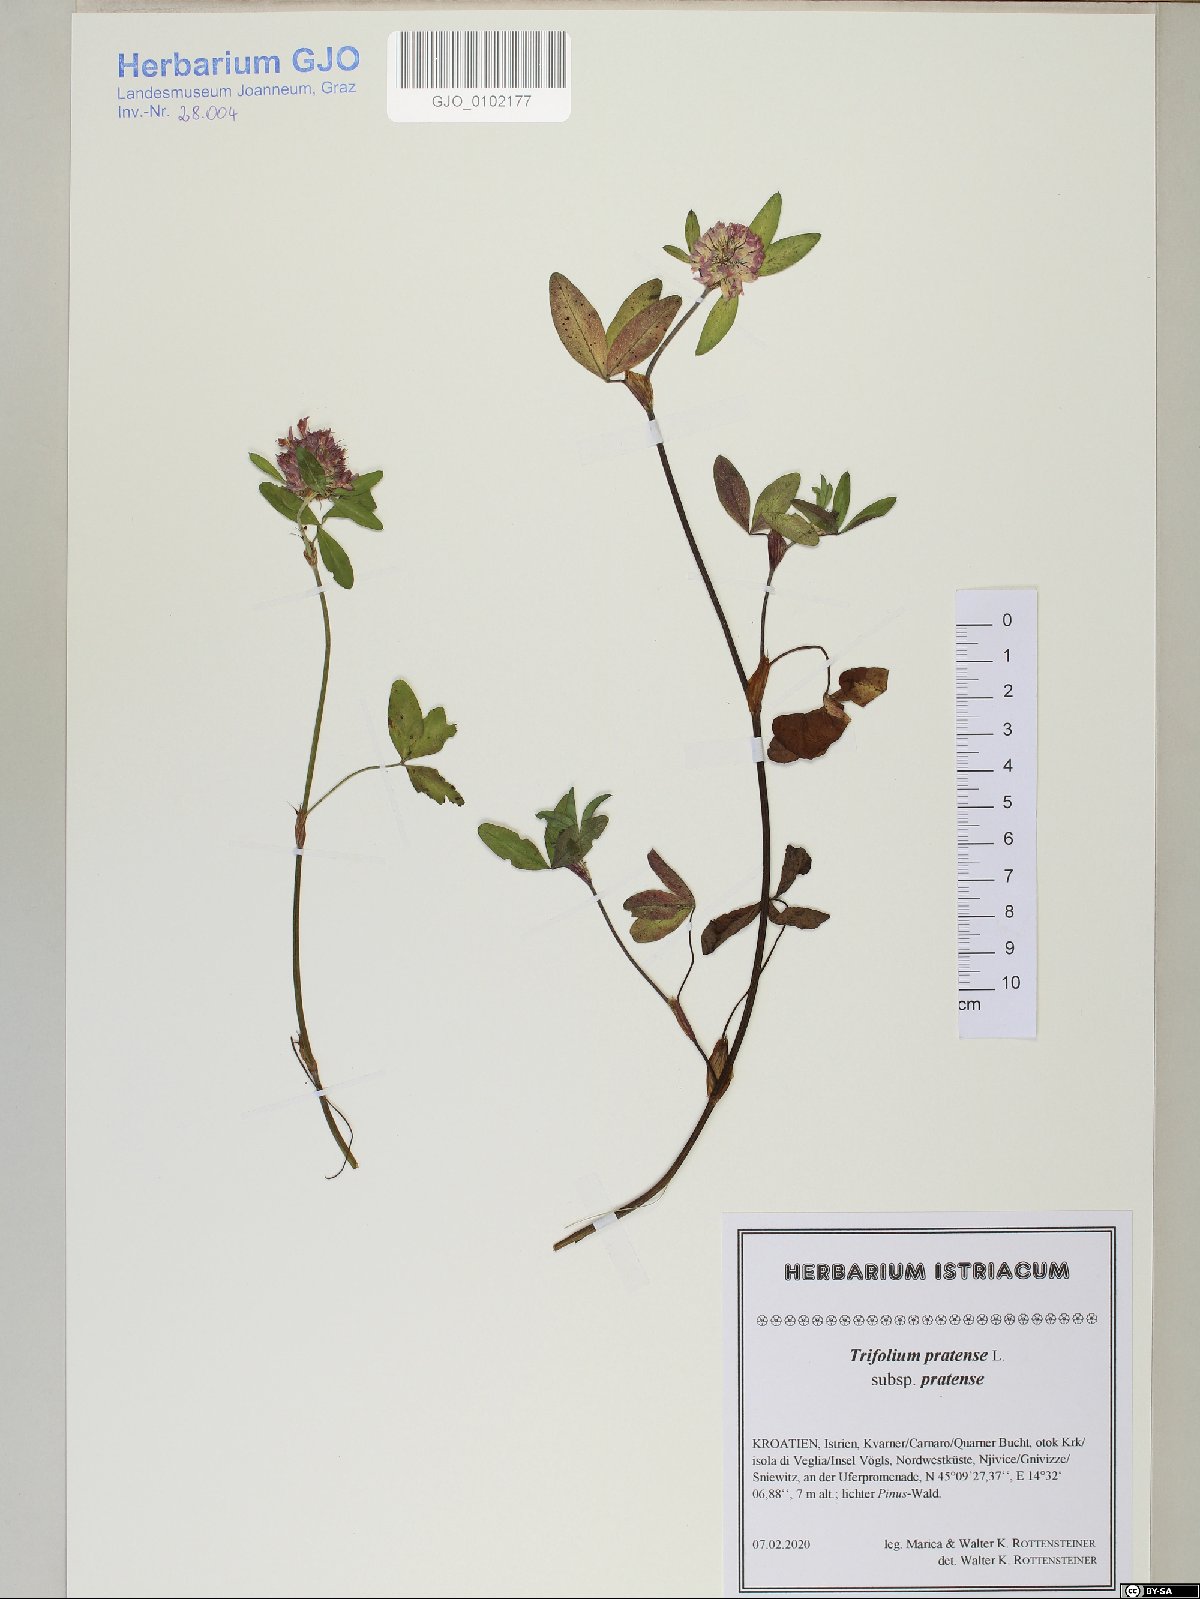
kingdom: Plantae
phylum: Tracheophyta
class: Magnoliopsida
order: Fabales
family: Fabaceae
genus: Trifolium
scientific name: Trifolium pratense
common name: Red clover
